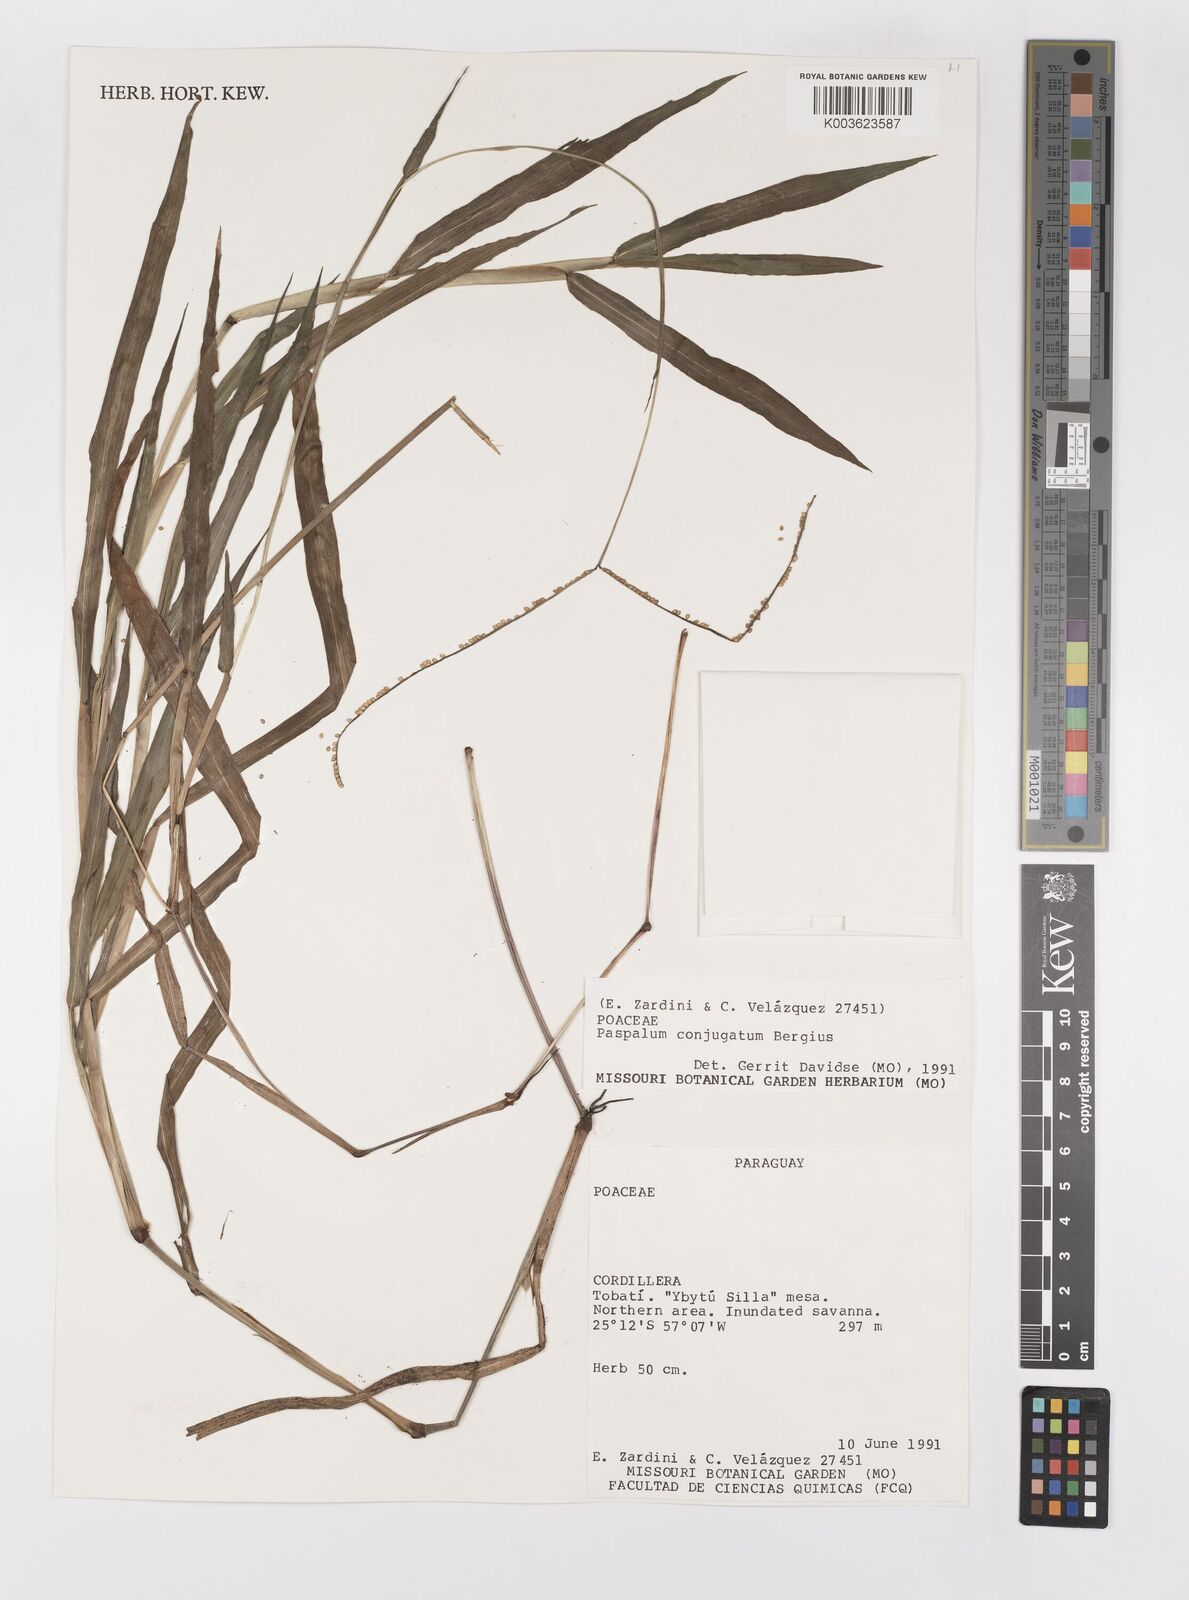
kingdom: Plantae
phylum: Tracheophyta
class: Liliopsida
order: Poales
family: Poaceae
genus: Paspalum
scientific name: Paspalum conjugatum
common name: Hilograss
